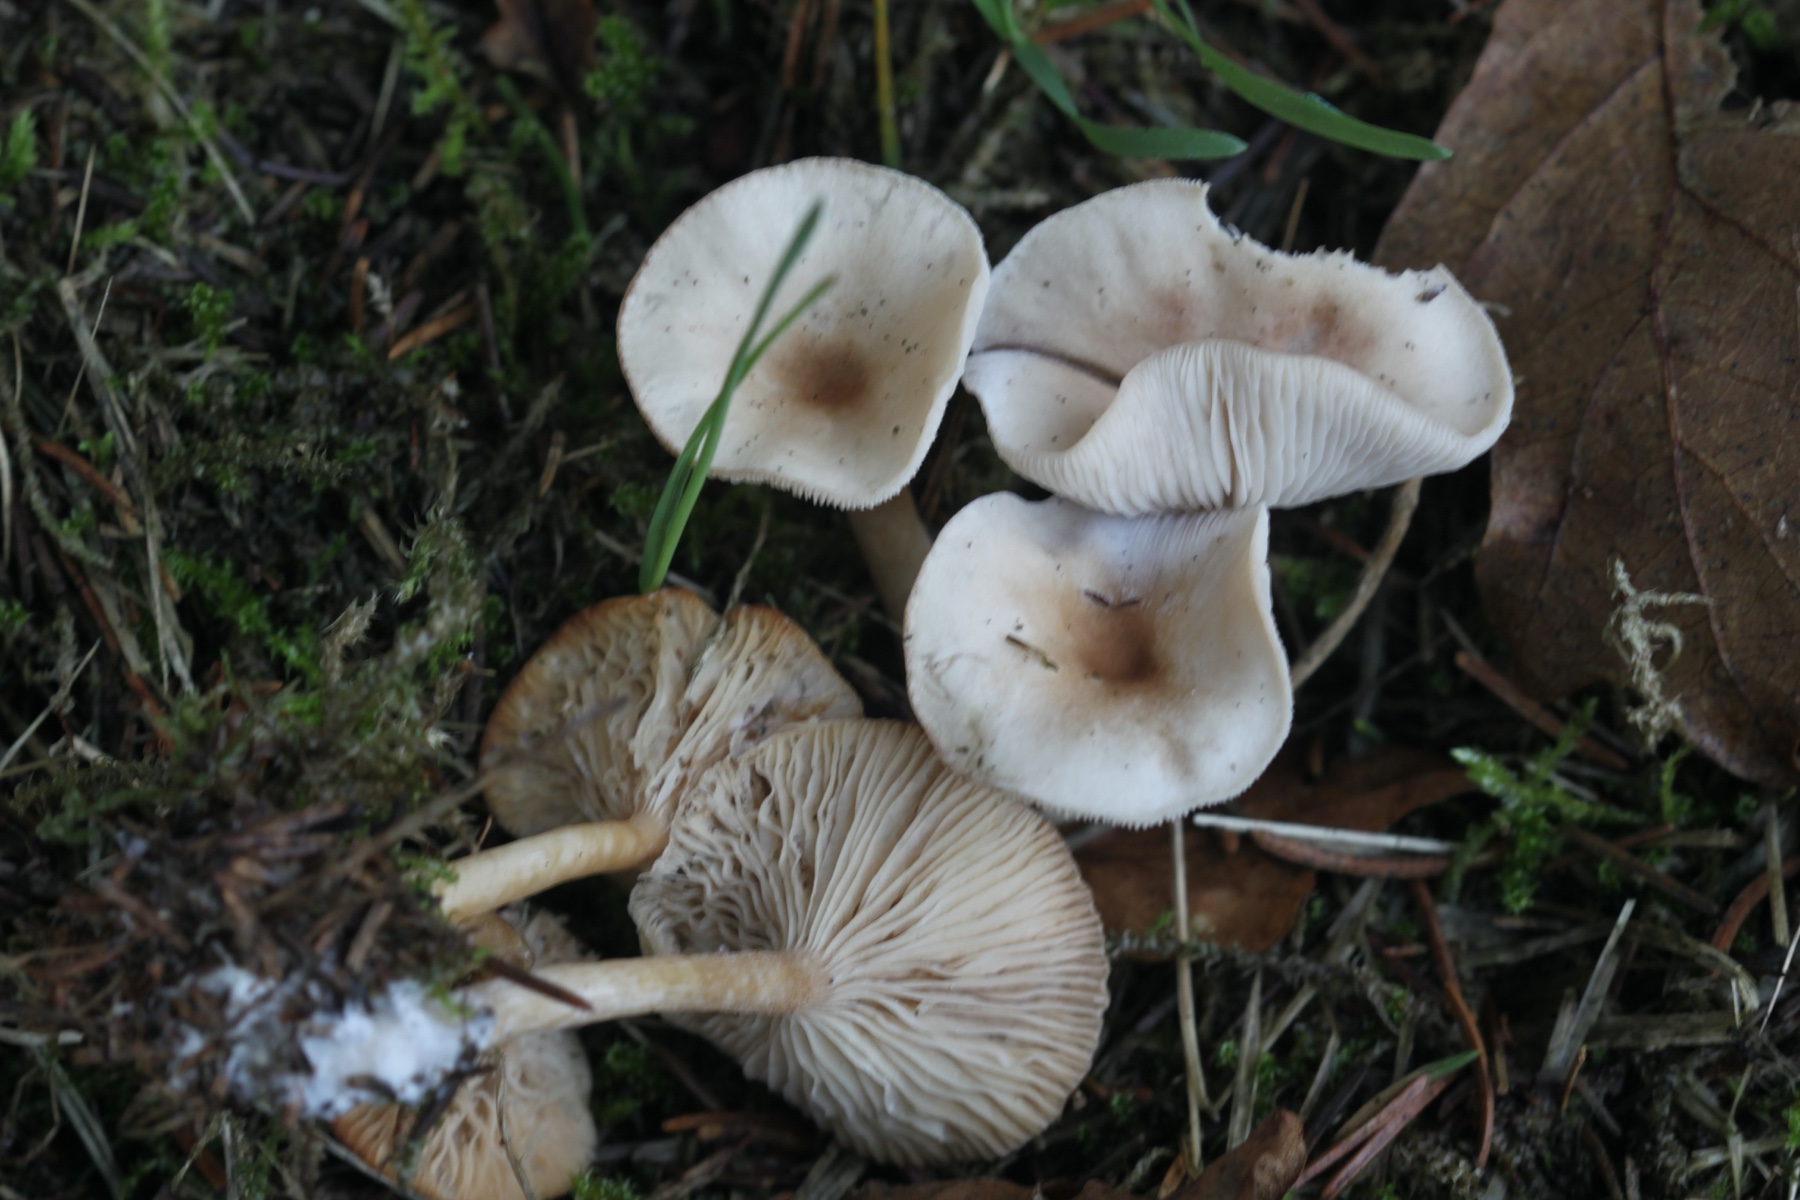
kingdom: Fungi
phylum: Basidiomycota
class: Agaricomycetes
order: Agaricales
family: Tricholomataceae
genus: Clitocybe
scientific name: Clitocybe fragrans
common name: vellugtende tragthat
